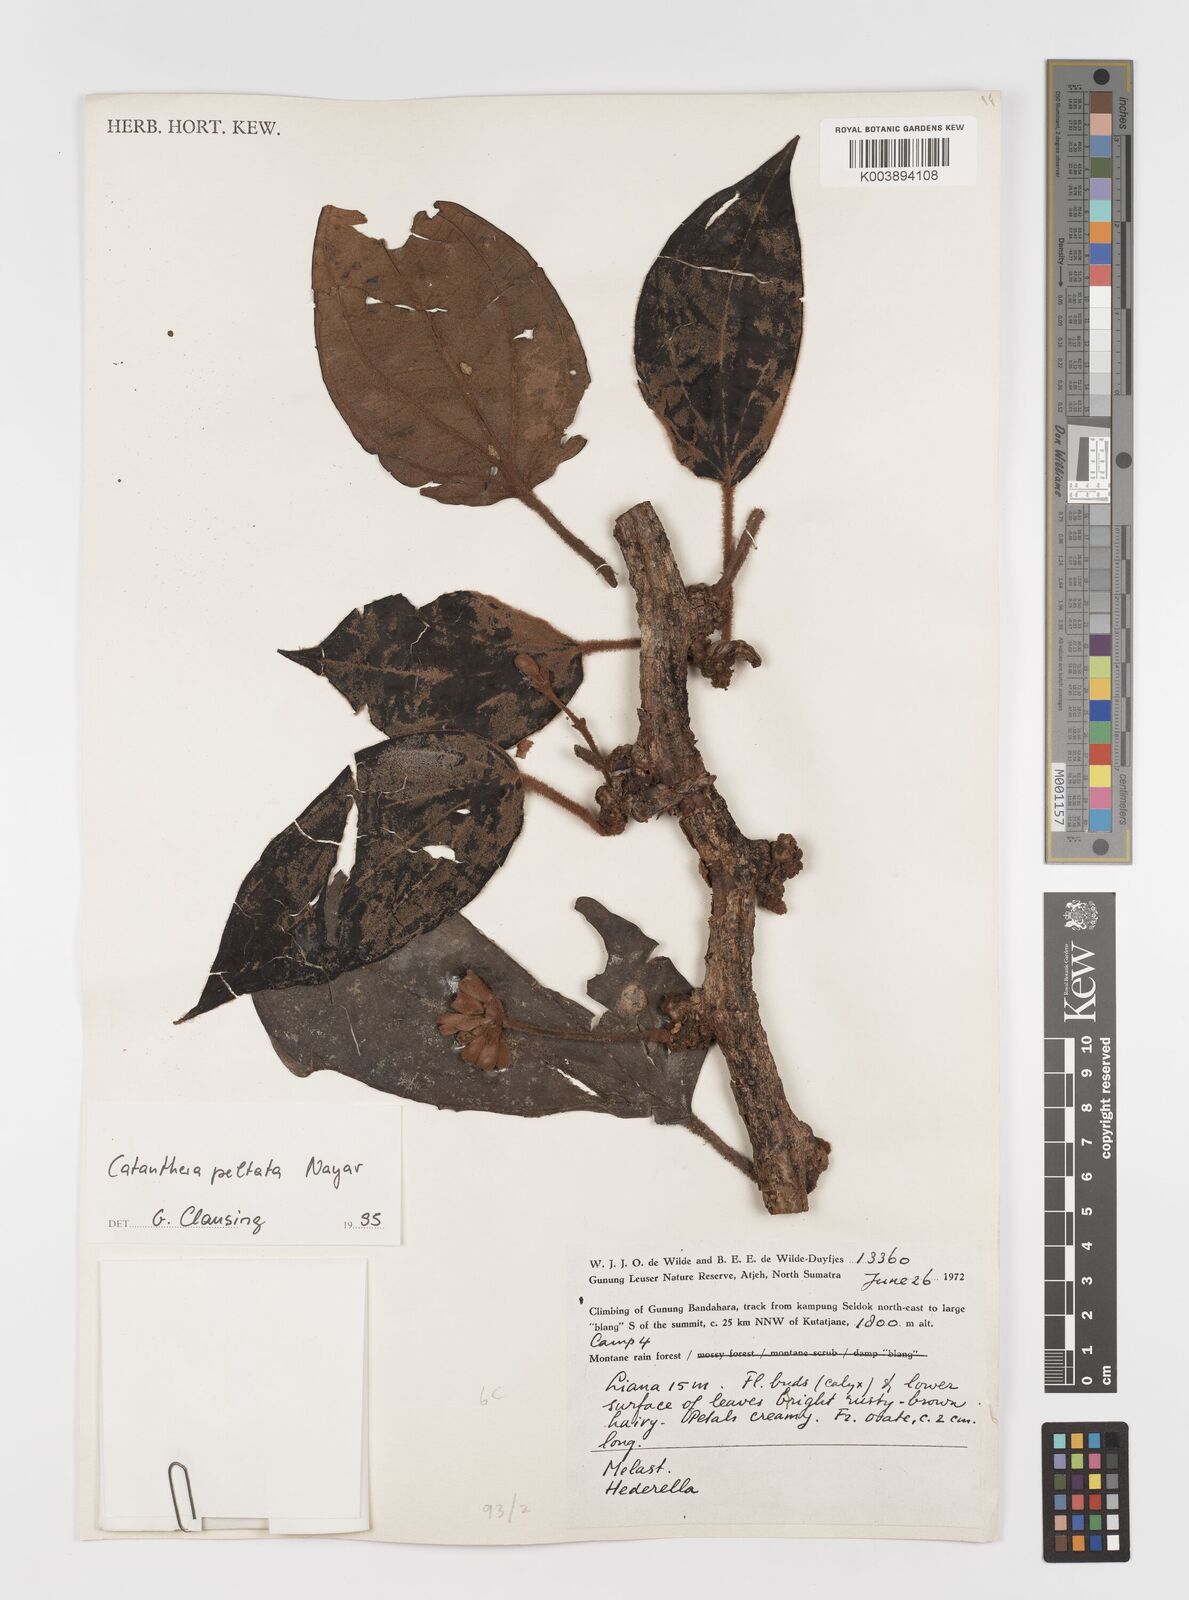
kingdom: Plantae
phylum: Tracheophyta
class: Magnoliopsida
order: Myrtales
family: Melastomataceae
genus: Catanthera
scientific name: Catanthera peltata
